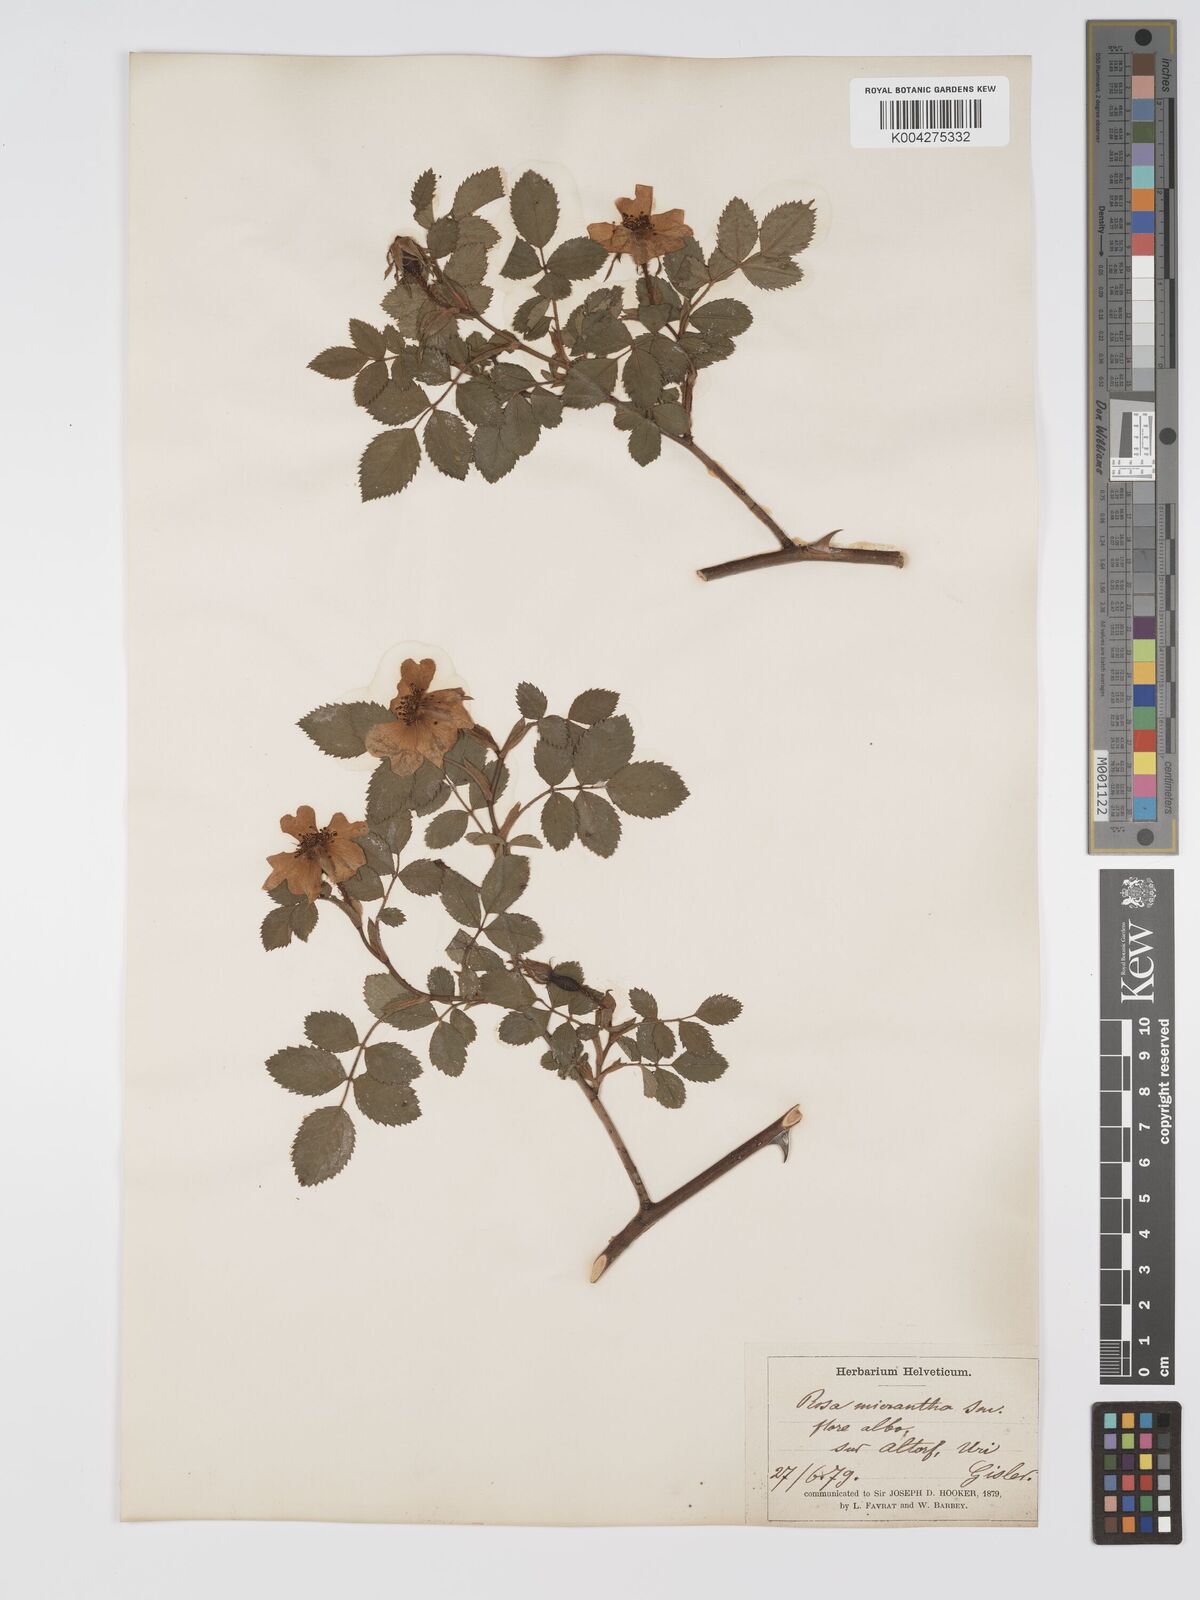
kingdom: Plantae
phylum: Tracheophyta
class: Magnoliopsida
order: Rosales
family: Rosaceae
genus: Rosa
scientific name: Rosa
